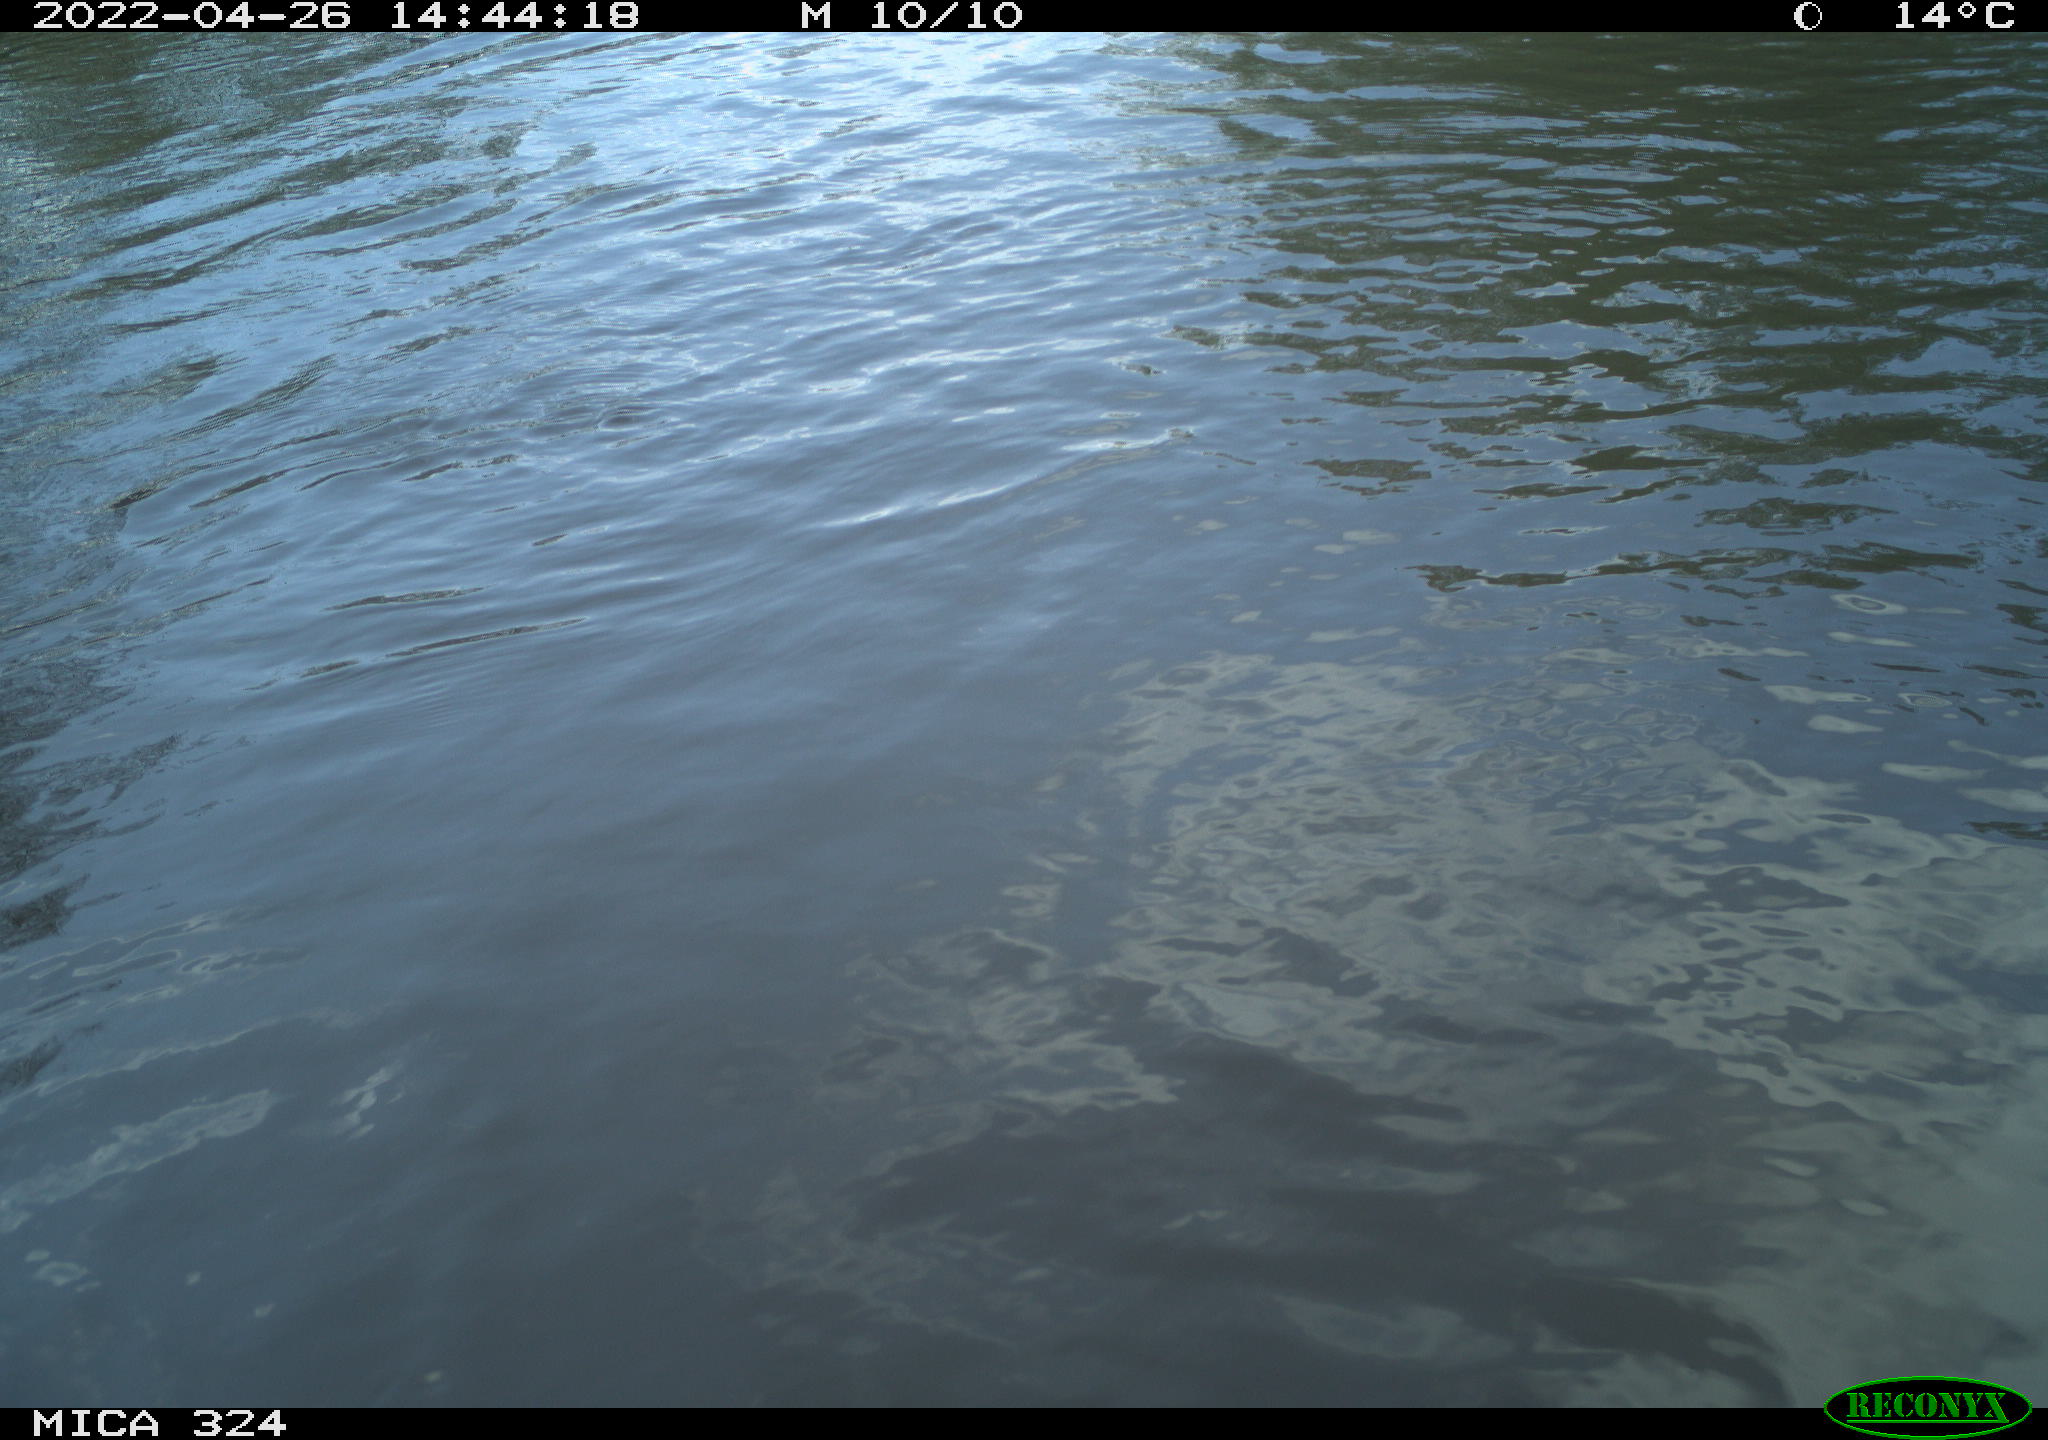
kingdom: Animalia
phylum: Chordata
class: Mammalia
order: Rodentia
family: Cricetidae
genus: Ondatra
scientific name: Ondatra zibethicus
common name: Muskrat
